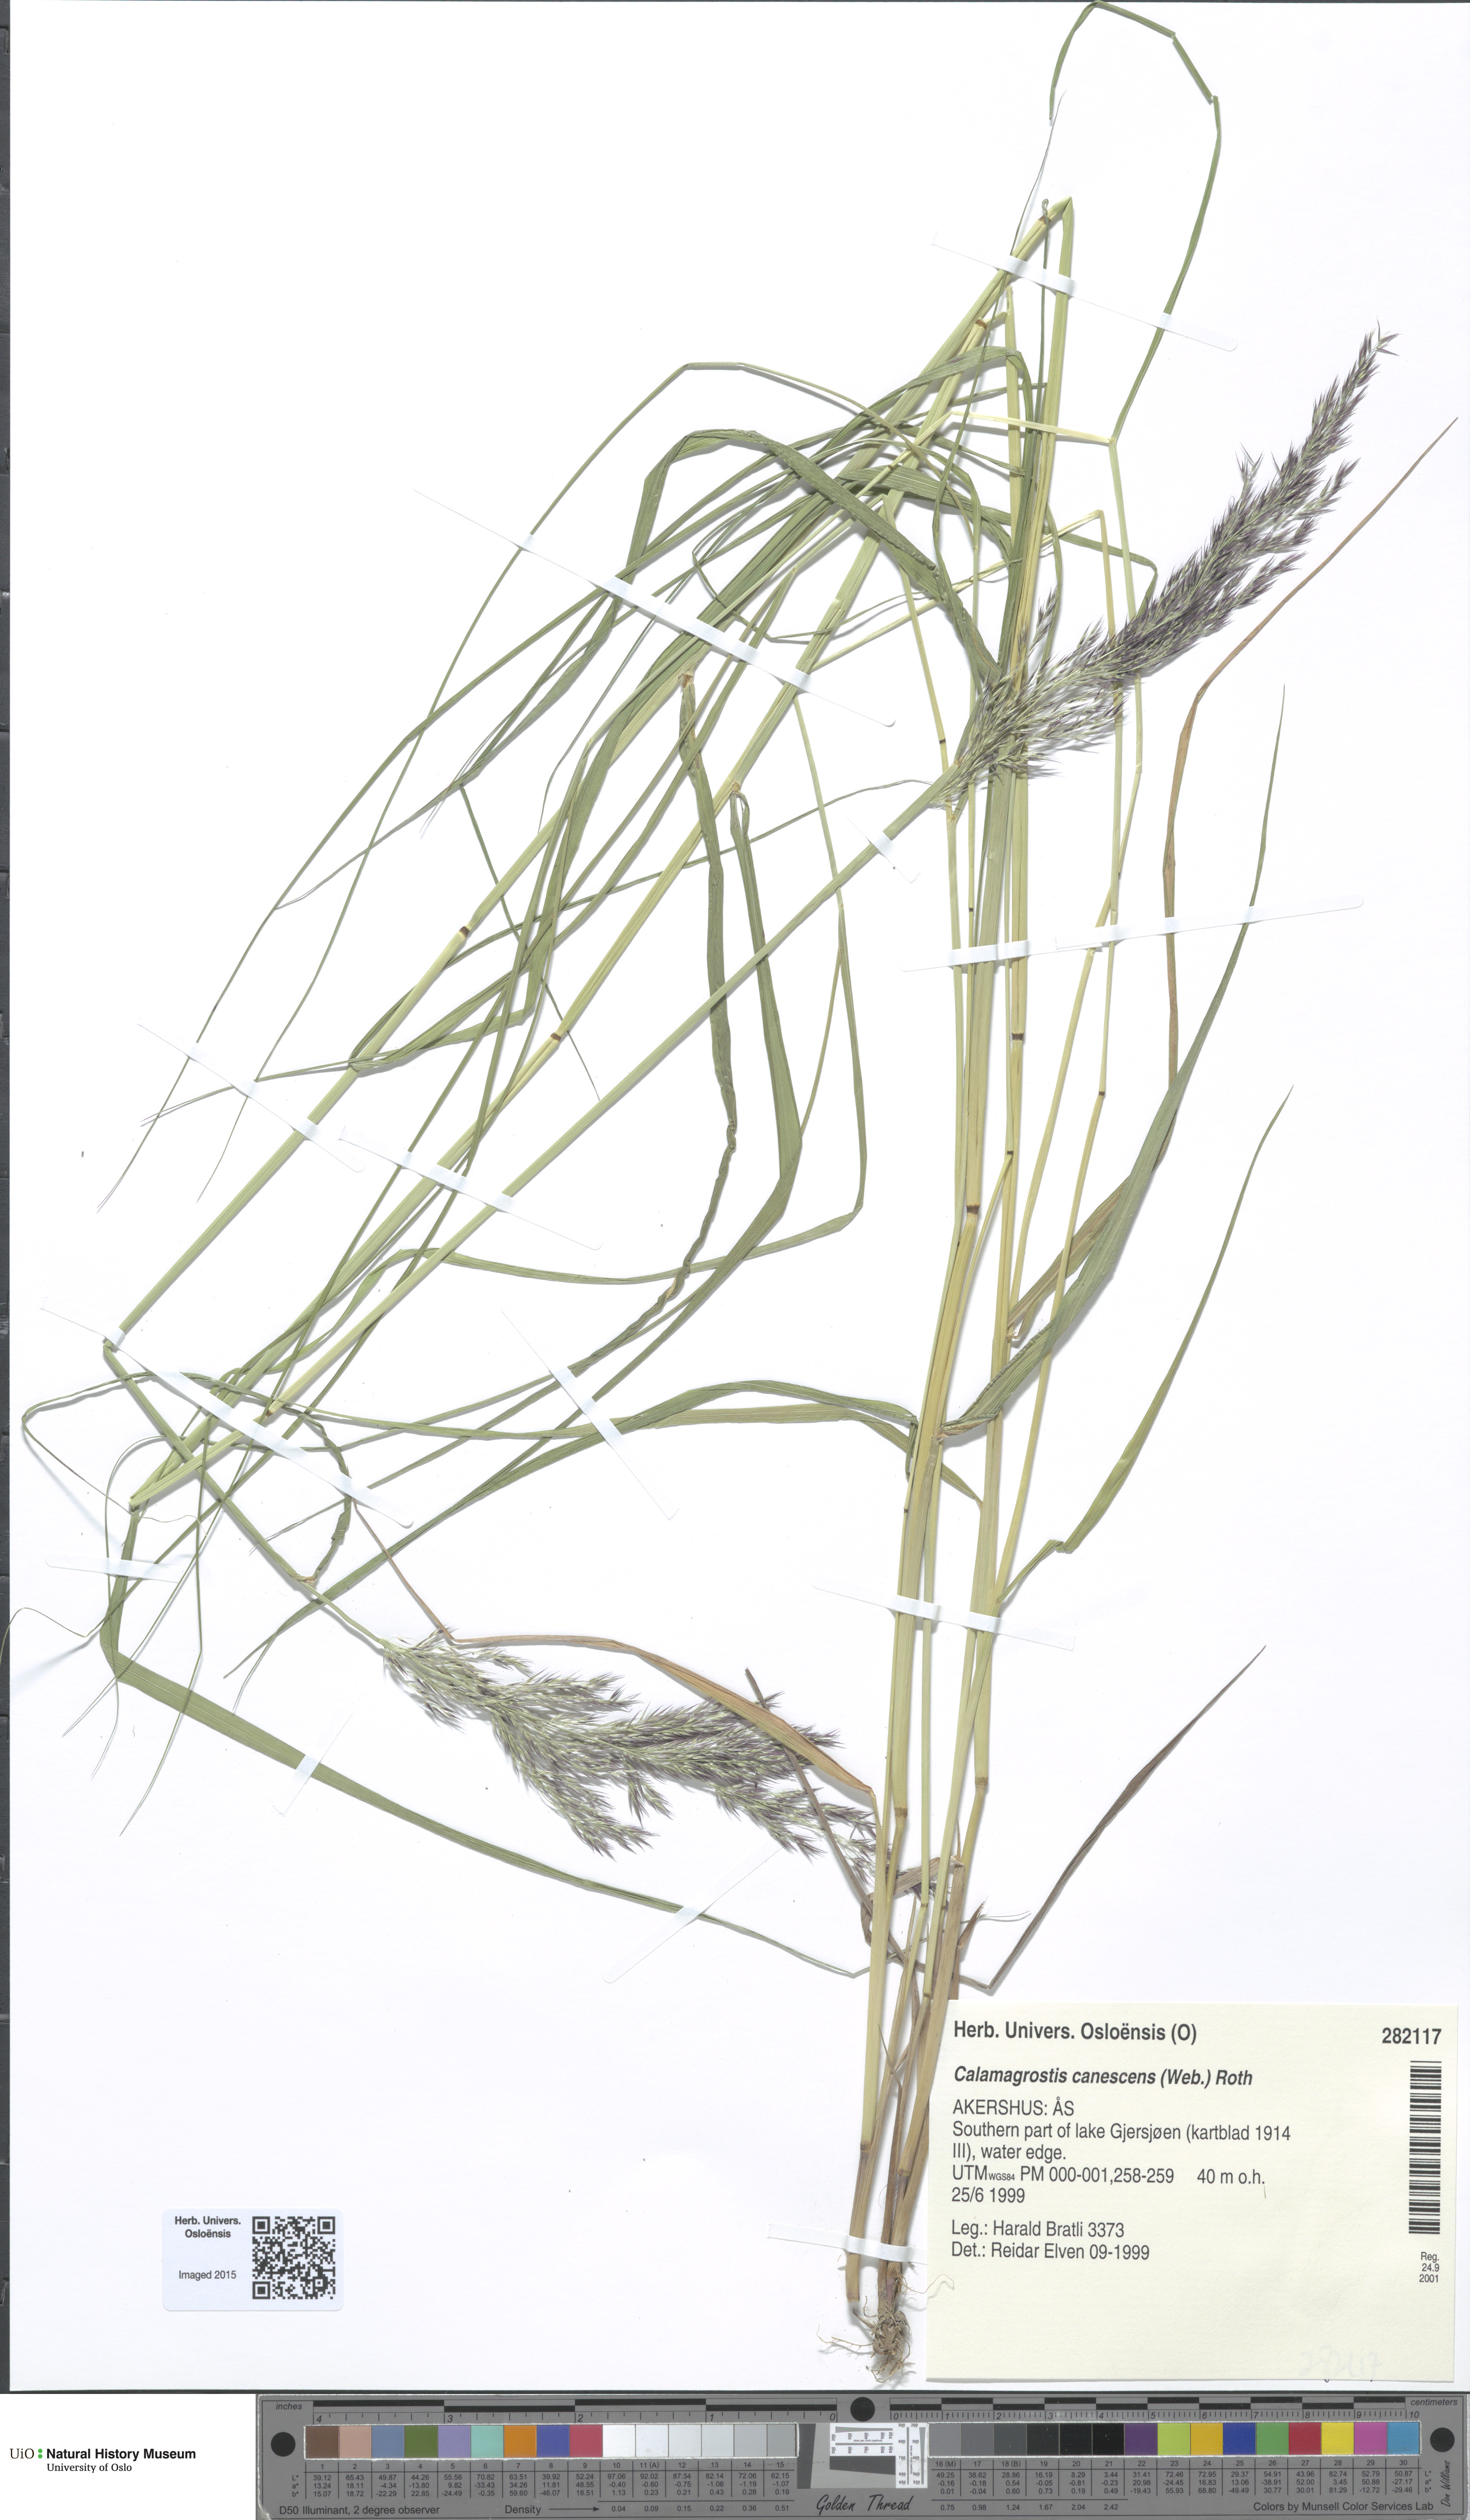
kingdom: Plantae
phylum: Tracheophyta
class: Liliopsida
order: Poales
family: Poaceae
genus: Calamagrostis
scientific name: Calamagrostis canescens
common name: Purple small-reed
